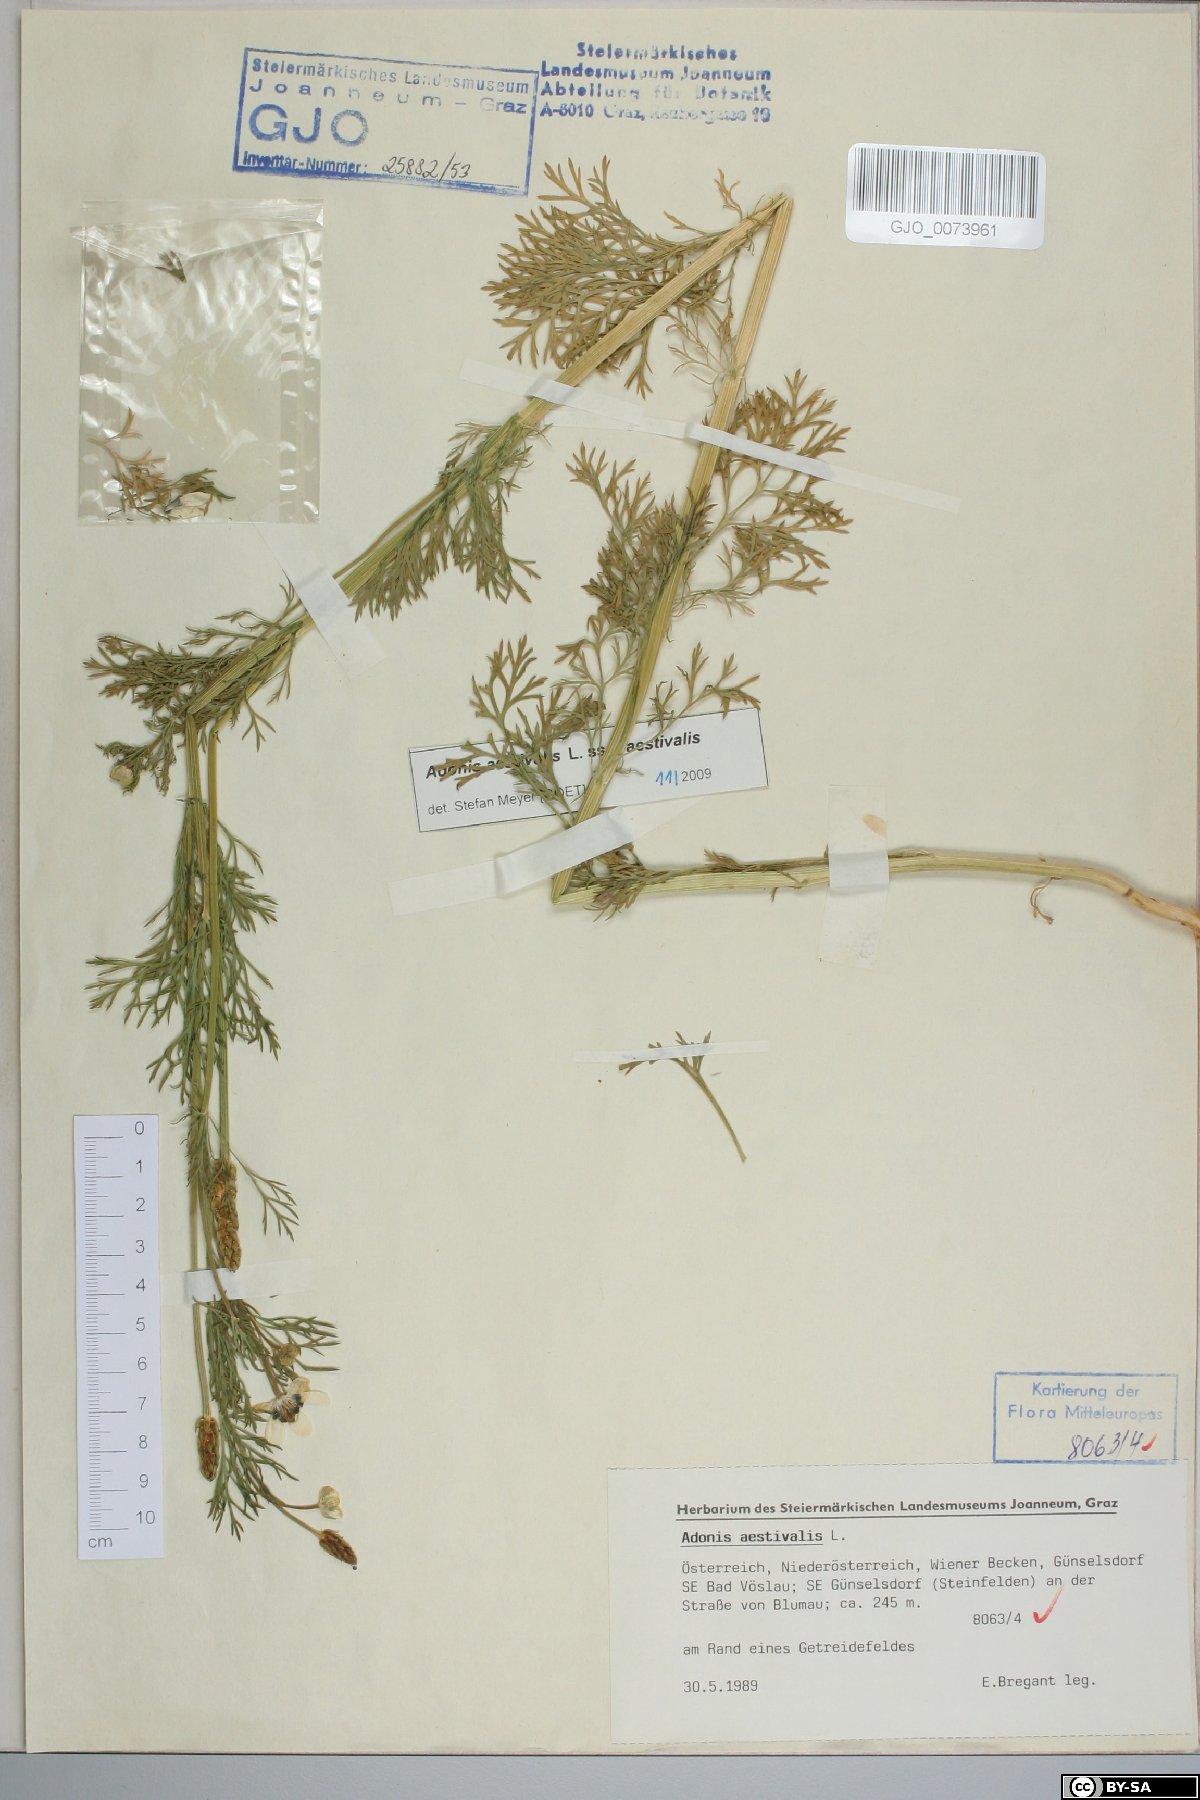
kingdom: Plantae
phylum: Tracheophyta
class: Magnoliopsida
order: Ranunculales
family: Ranunculaceae
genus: Adonis
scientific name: Adonis aestivalis
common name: Summer pheasant's-eye
